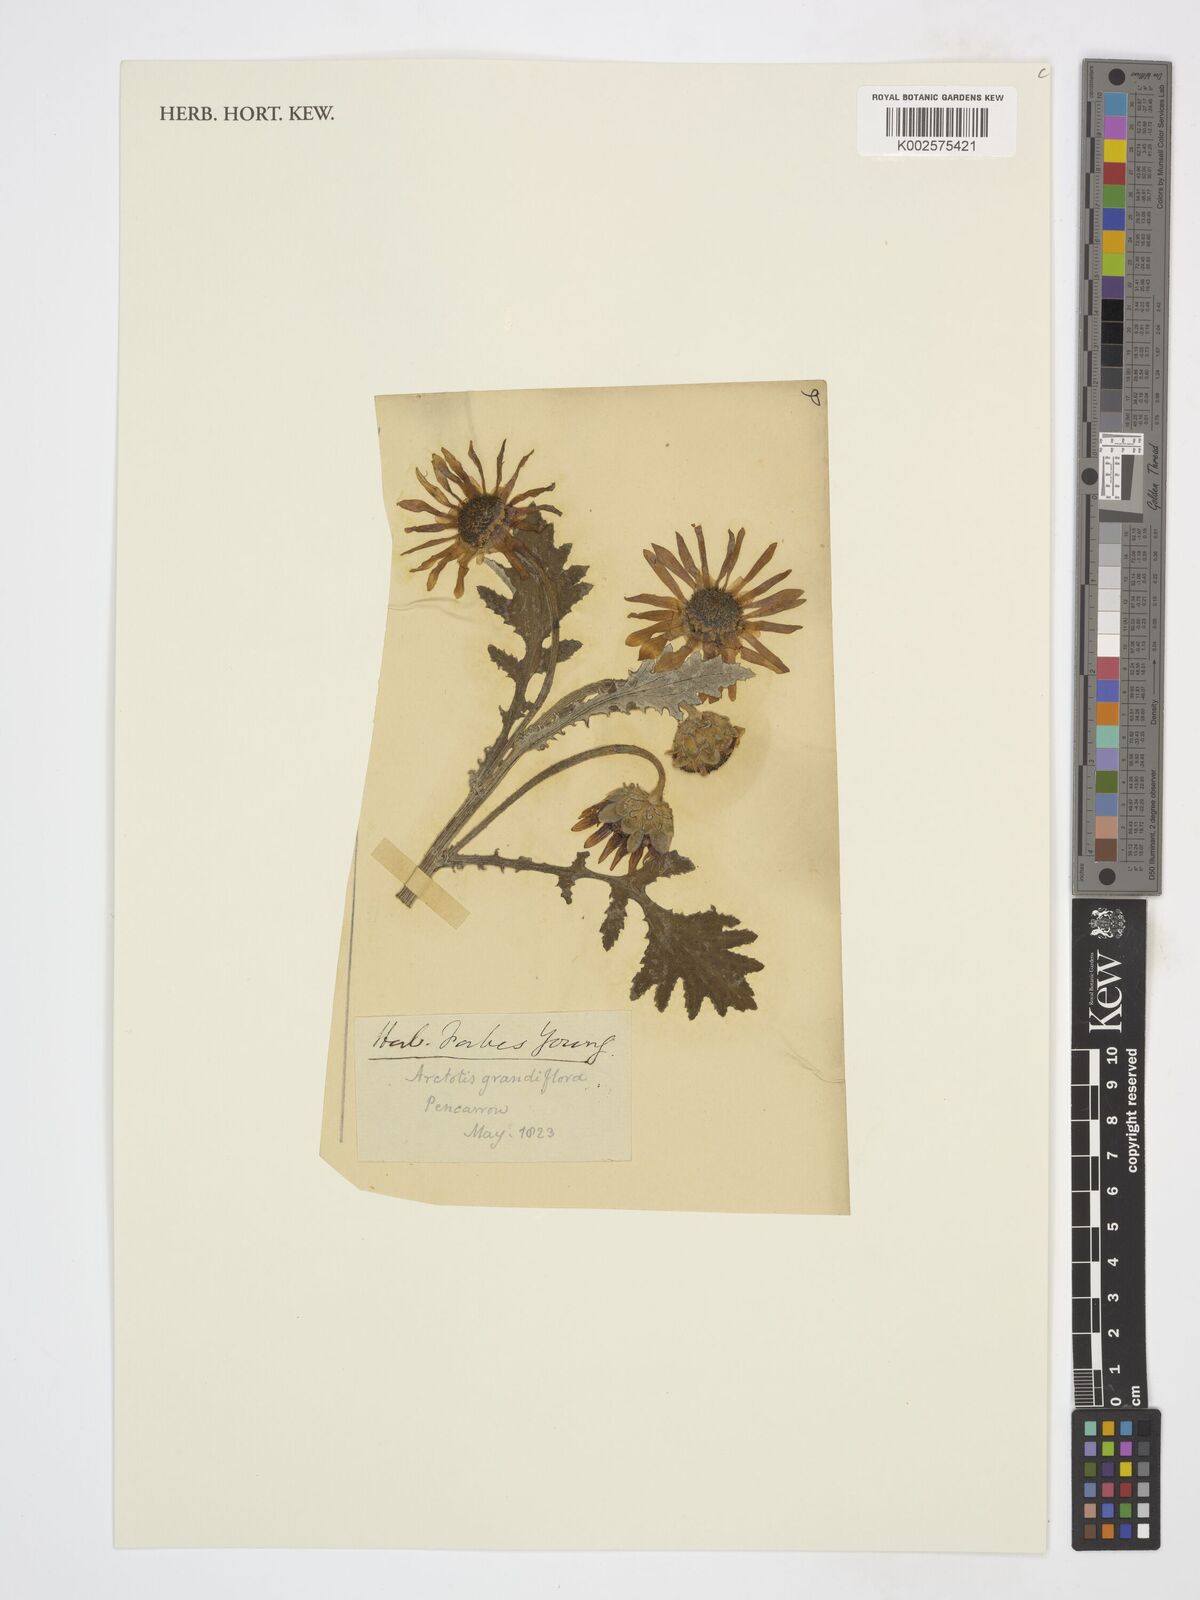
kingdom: Plantae
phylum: Tracheophyta
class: Magnoliopsida
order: Asterales
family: Asteraceae
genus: Arctotis
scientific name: Arctotis revoluta
